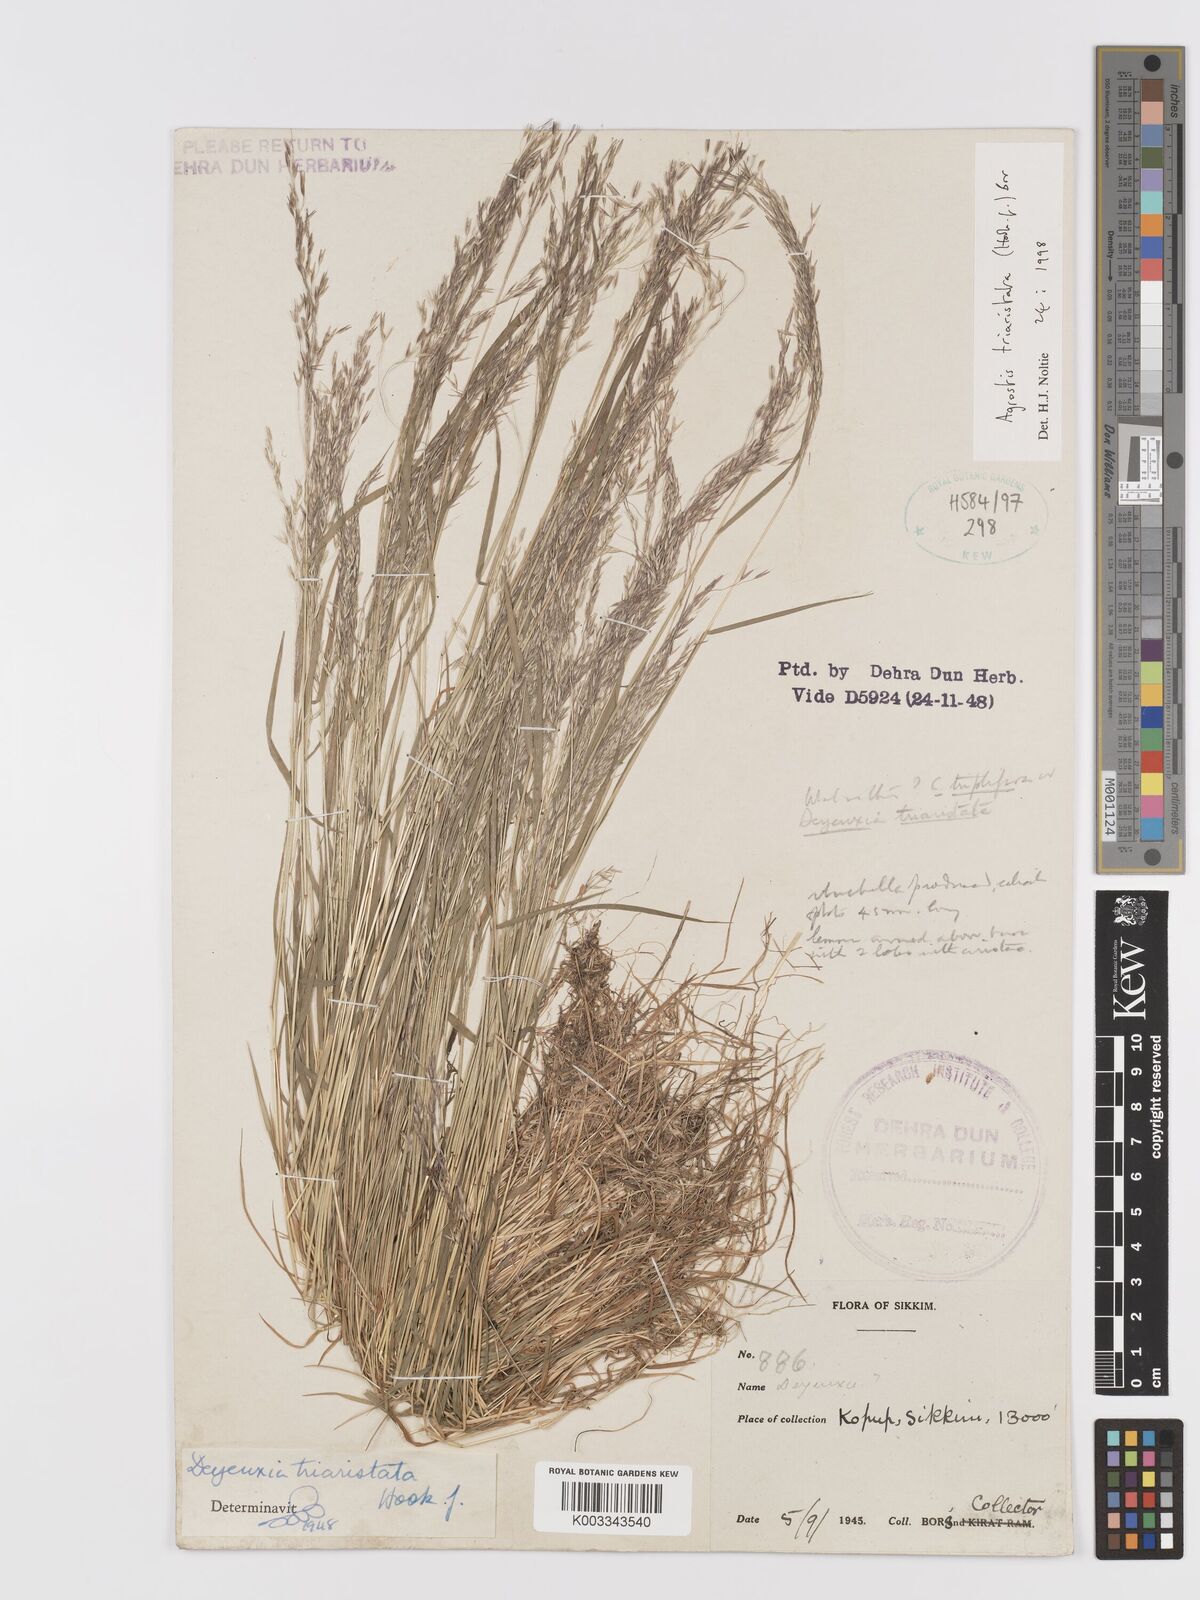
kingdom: Plantae
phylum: Tracheophyta
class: Liliopsida
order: Poales
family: Poaceae
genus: Agrostis
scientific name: Agrostis
